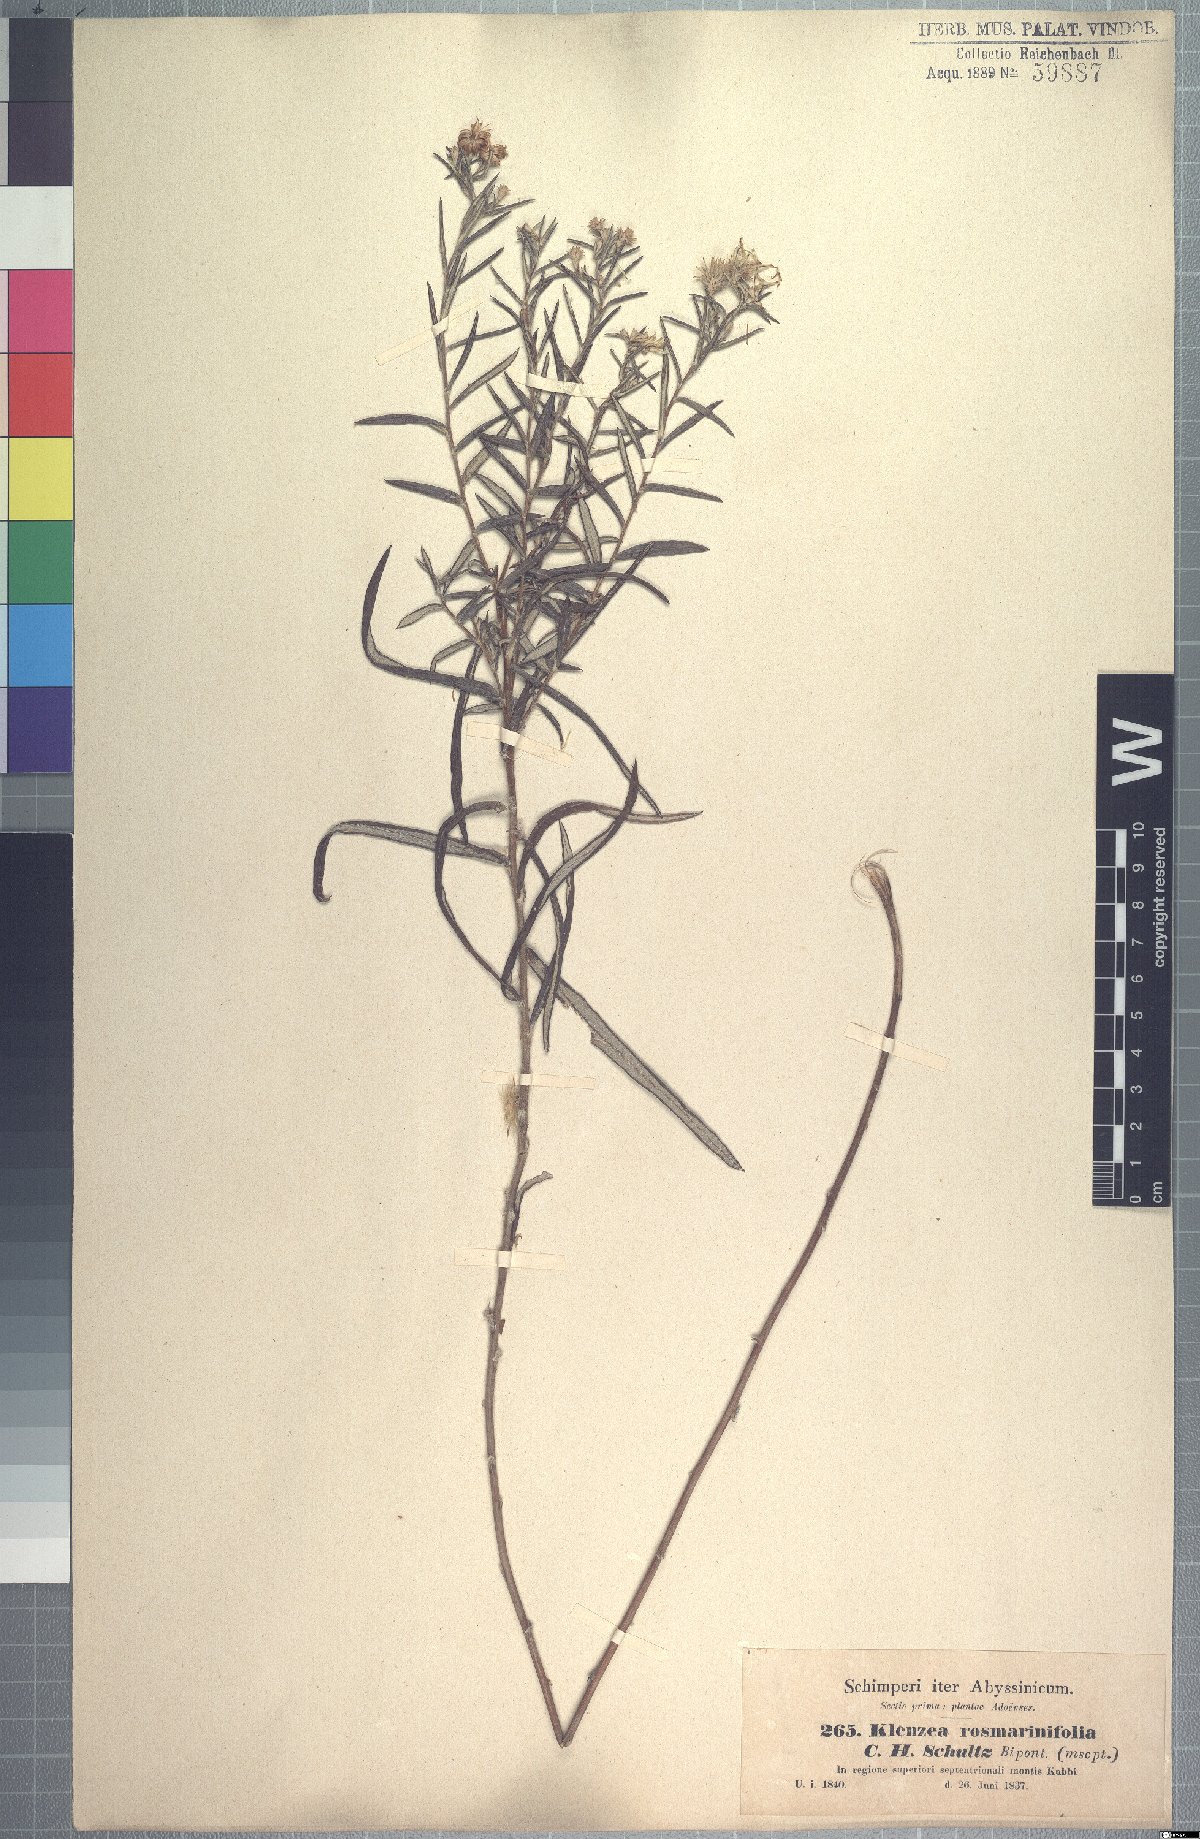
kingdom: Plantae
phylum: Tracheophyta
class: Magnoliopsida
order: Asterales
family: Asteraceae
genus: Athrixia
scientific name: Athrixia rosmarinifolia
